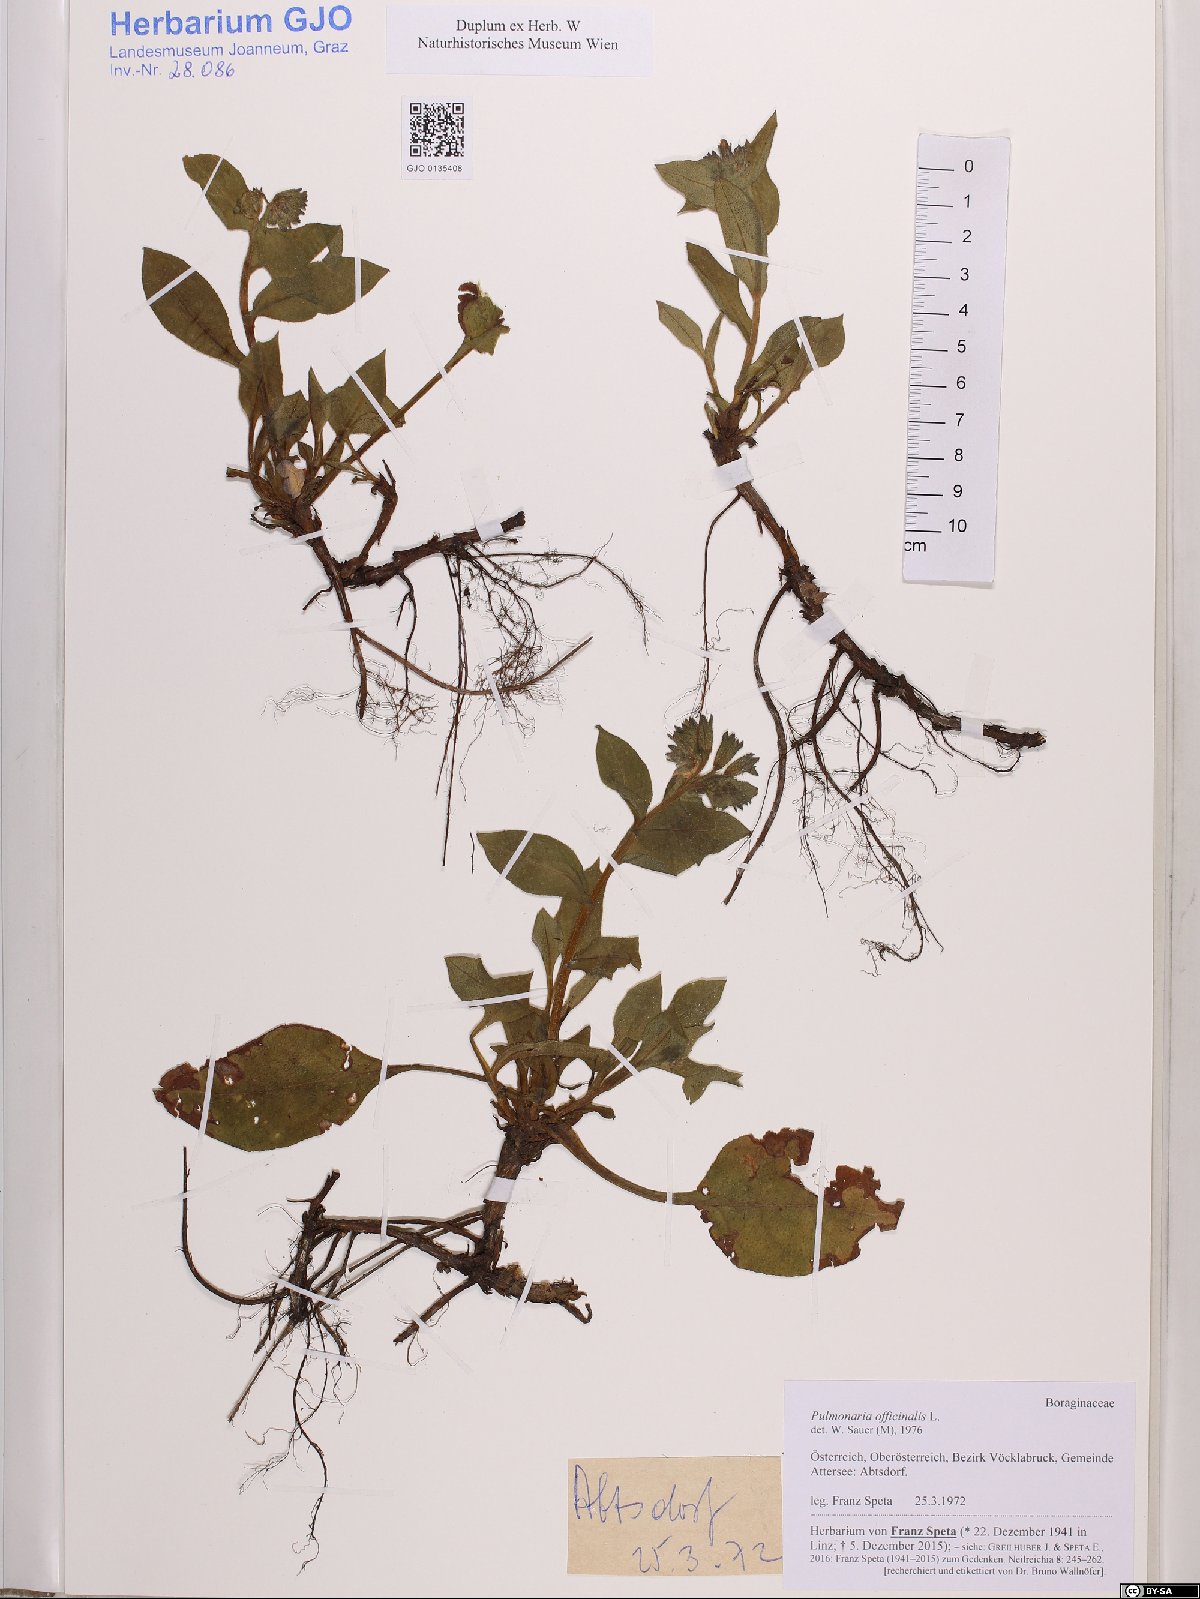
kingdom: Plantae
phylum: Tracheophyta
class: Magnoliopsida
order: Boraginales
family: Boraginaceae
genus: Pulmonaria
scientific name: Pulmonaria officinalis
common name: Lungwort
